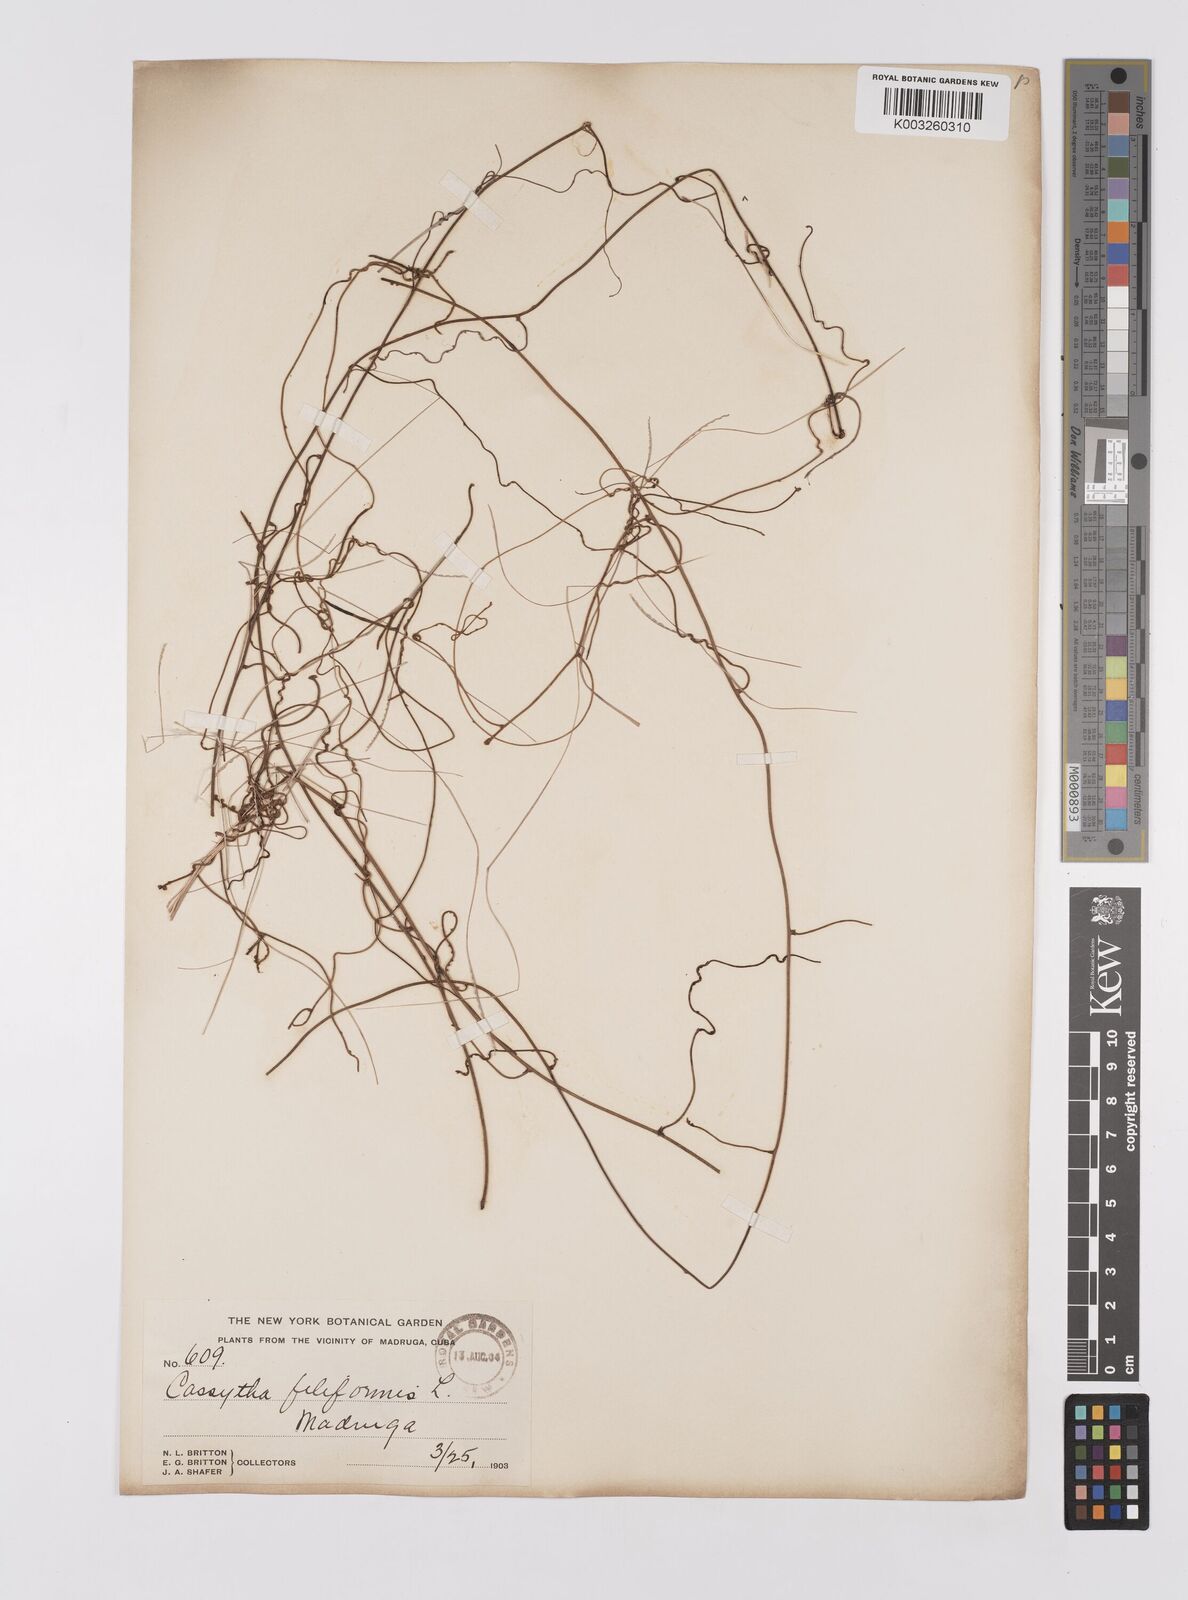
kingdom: Plantae
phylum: Tracheophyta
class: Magnoliopsida
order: Laurales
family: Lauraceae
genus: Cassytha
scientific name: Cassytha filiformis
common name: Dodder-laurel
